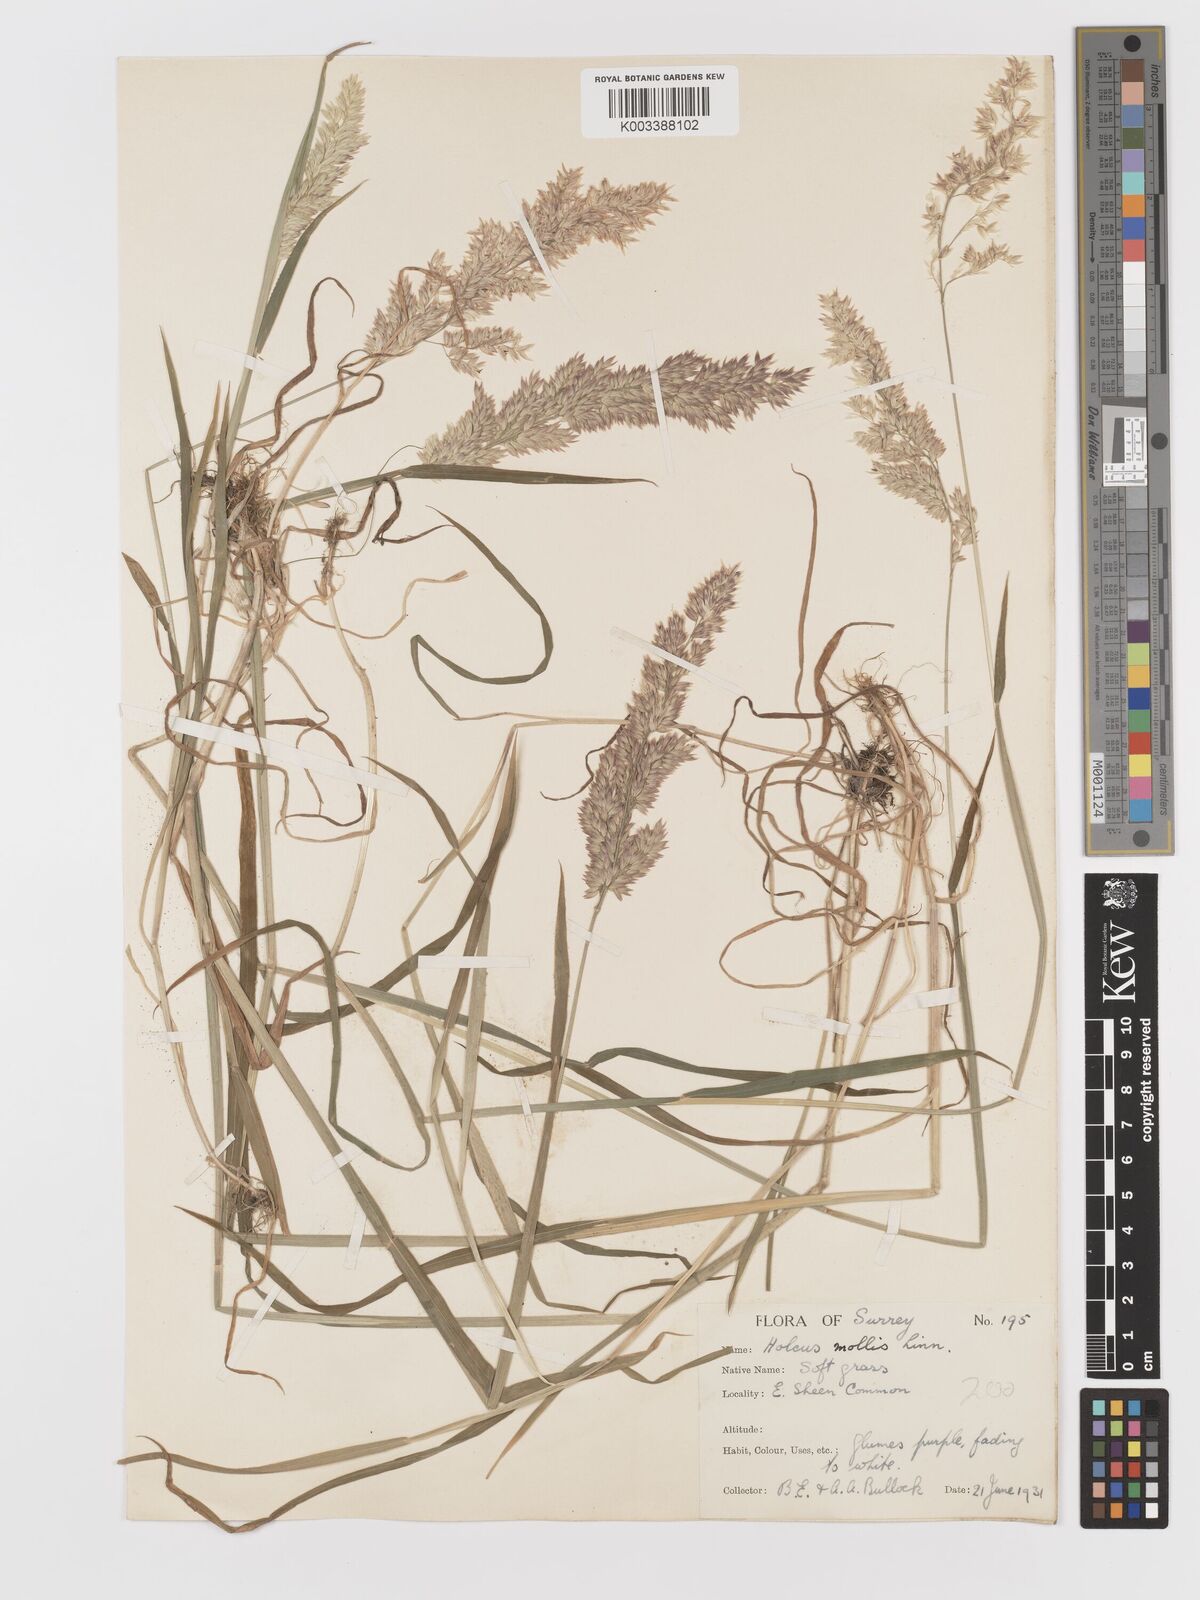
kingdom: Plantae
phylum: Tracheophyta
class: Liliopsida
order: Poales
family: Poaceae
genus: Holcus
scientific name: Holcus mollis
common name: Creeping velvetgrass
